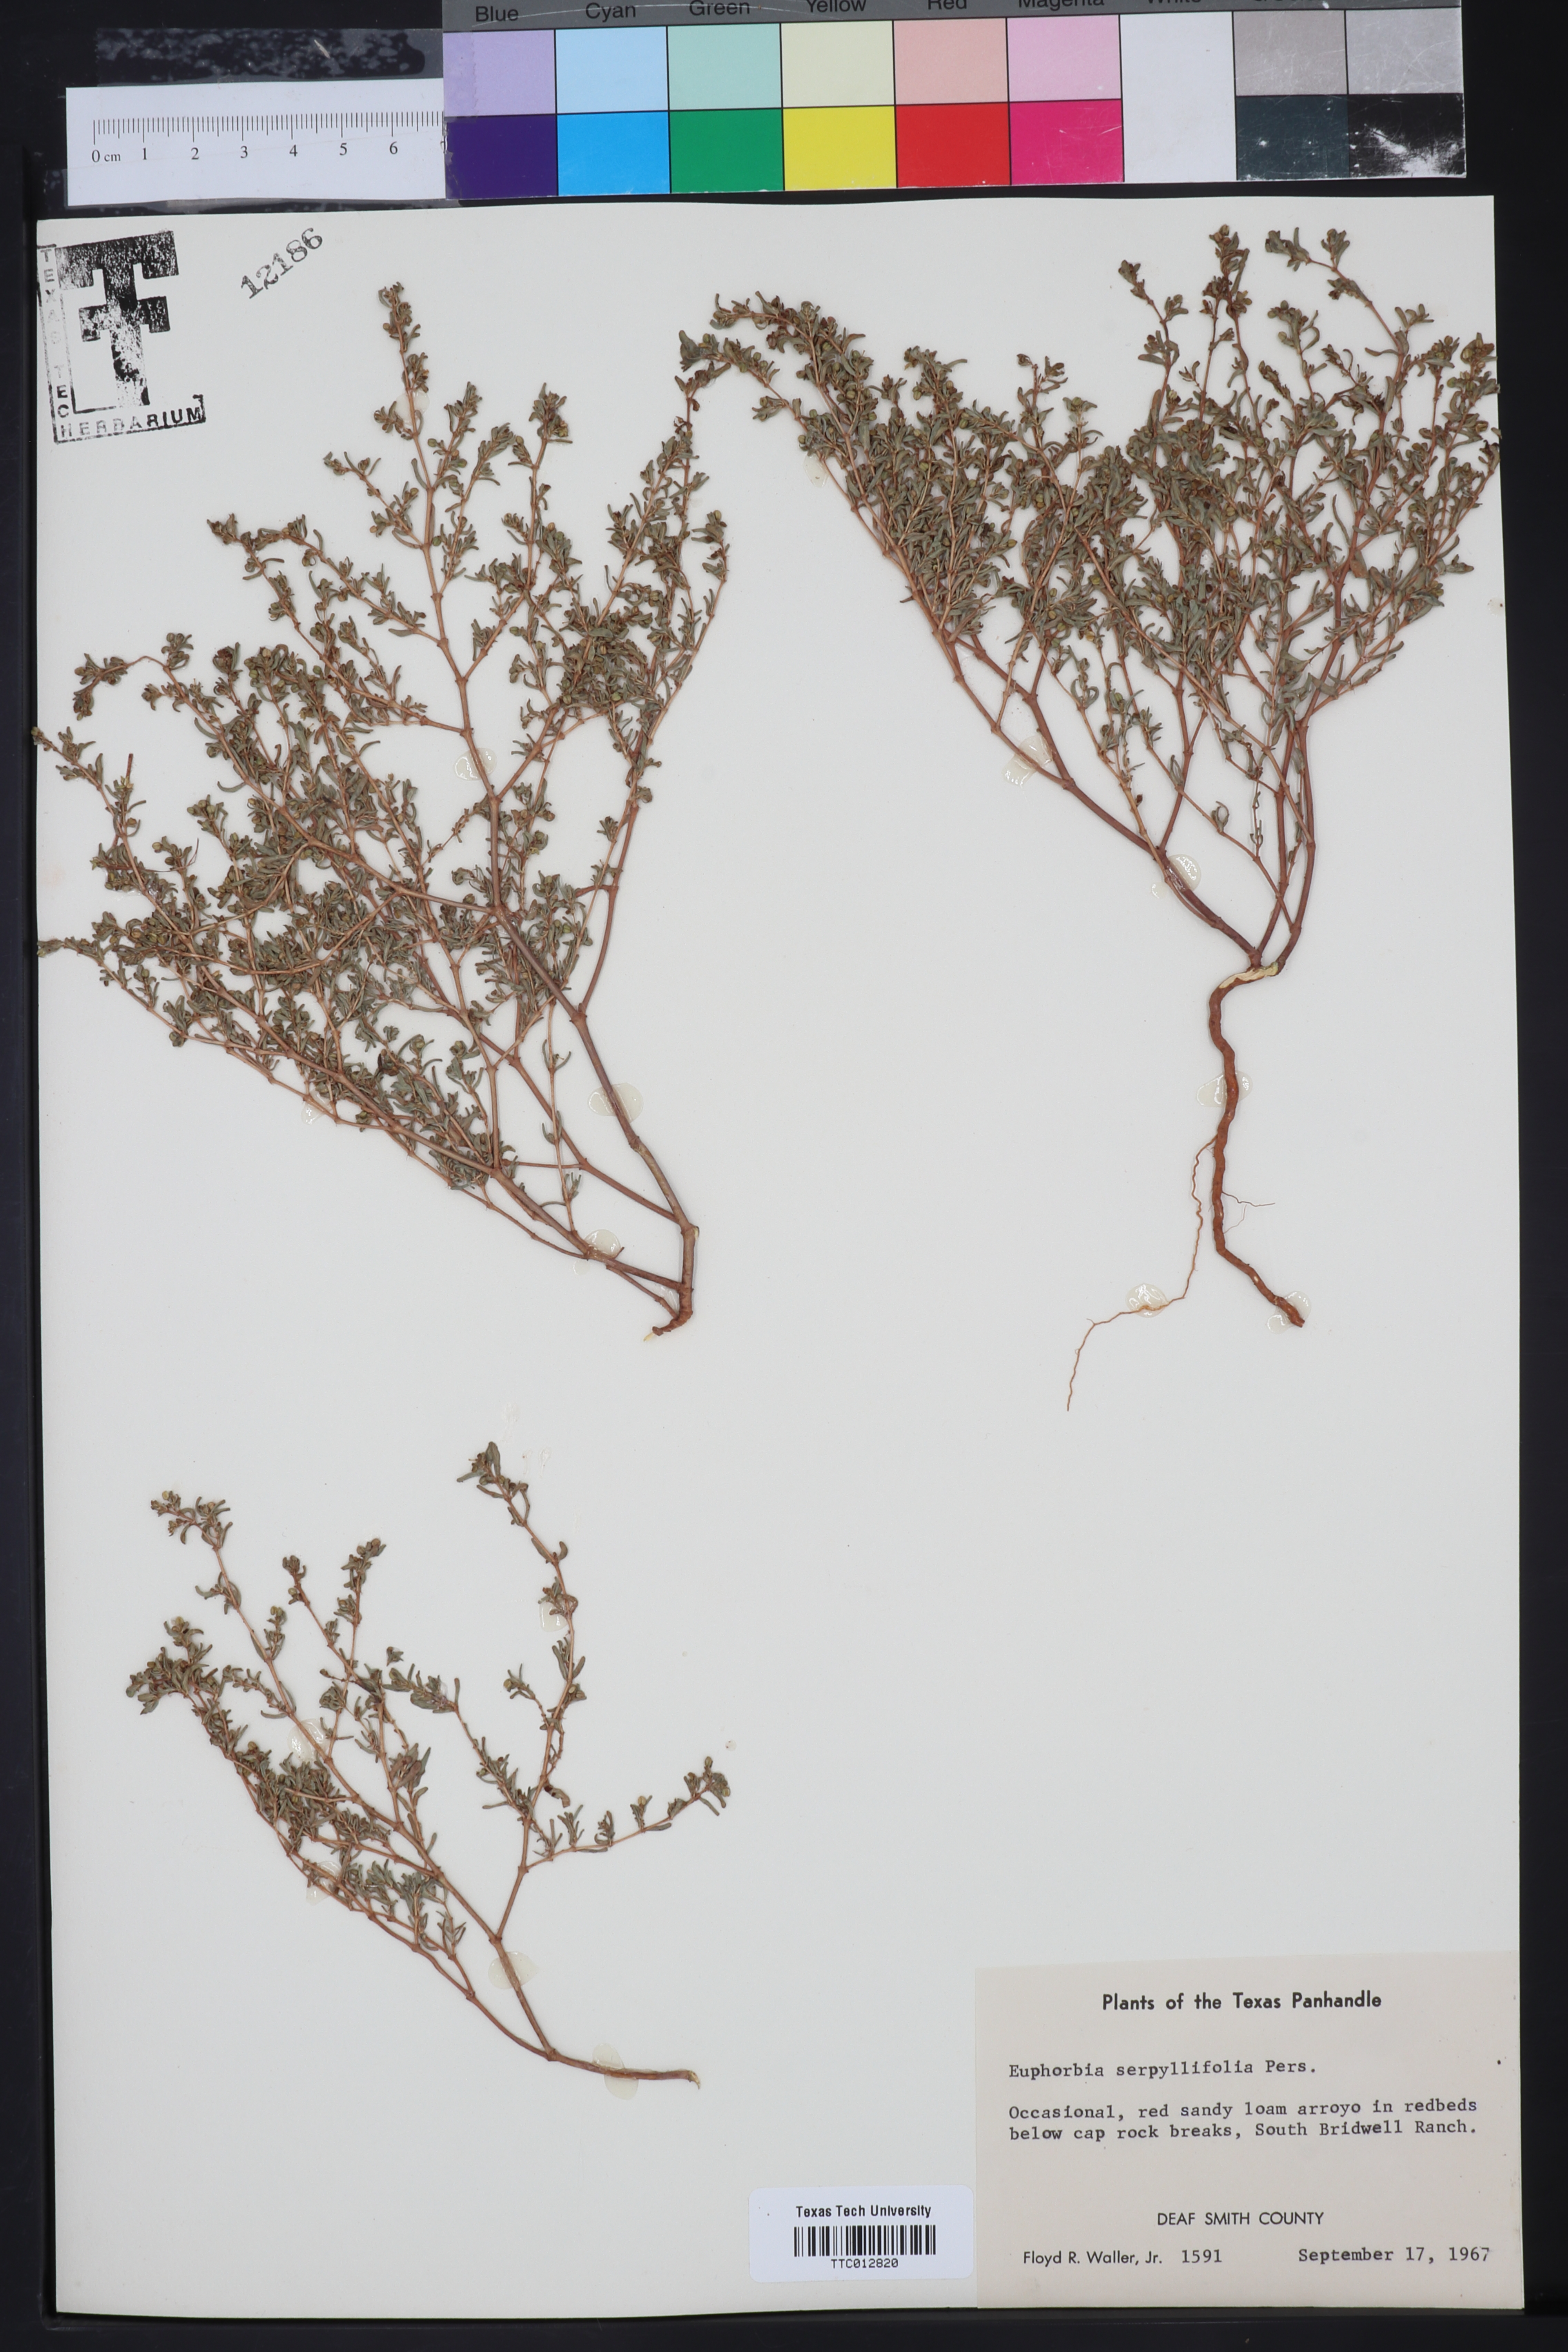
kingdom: Plantae
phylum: Tracheophyta
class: Magnoliopsida
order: Malpighiales
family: Euphorbiaceae
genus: Euphorbia
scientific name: Euphorbia serpillifolia
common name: Thyme-leaf spurge
